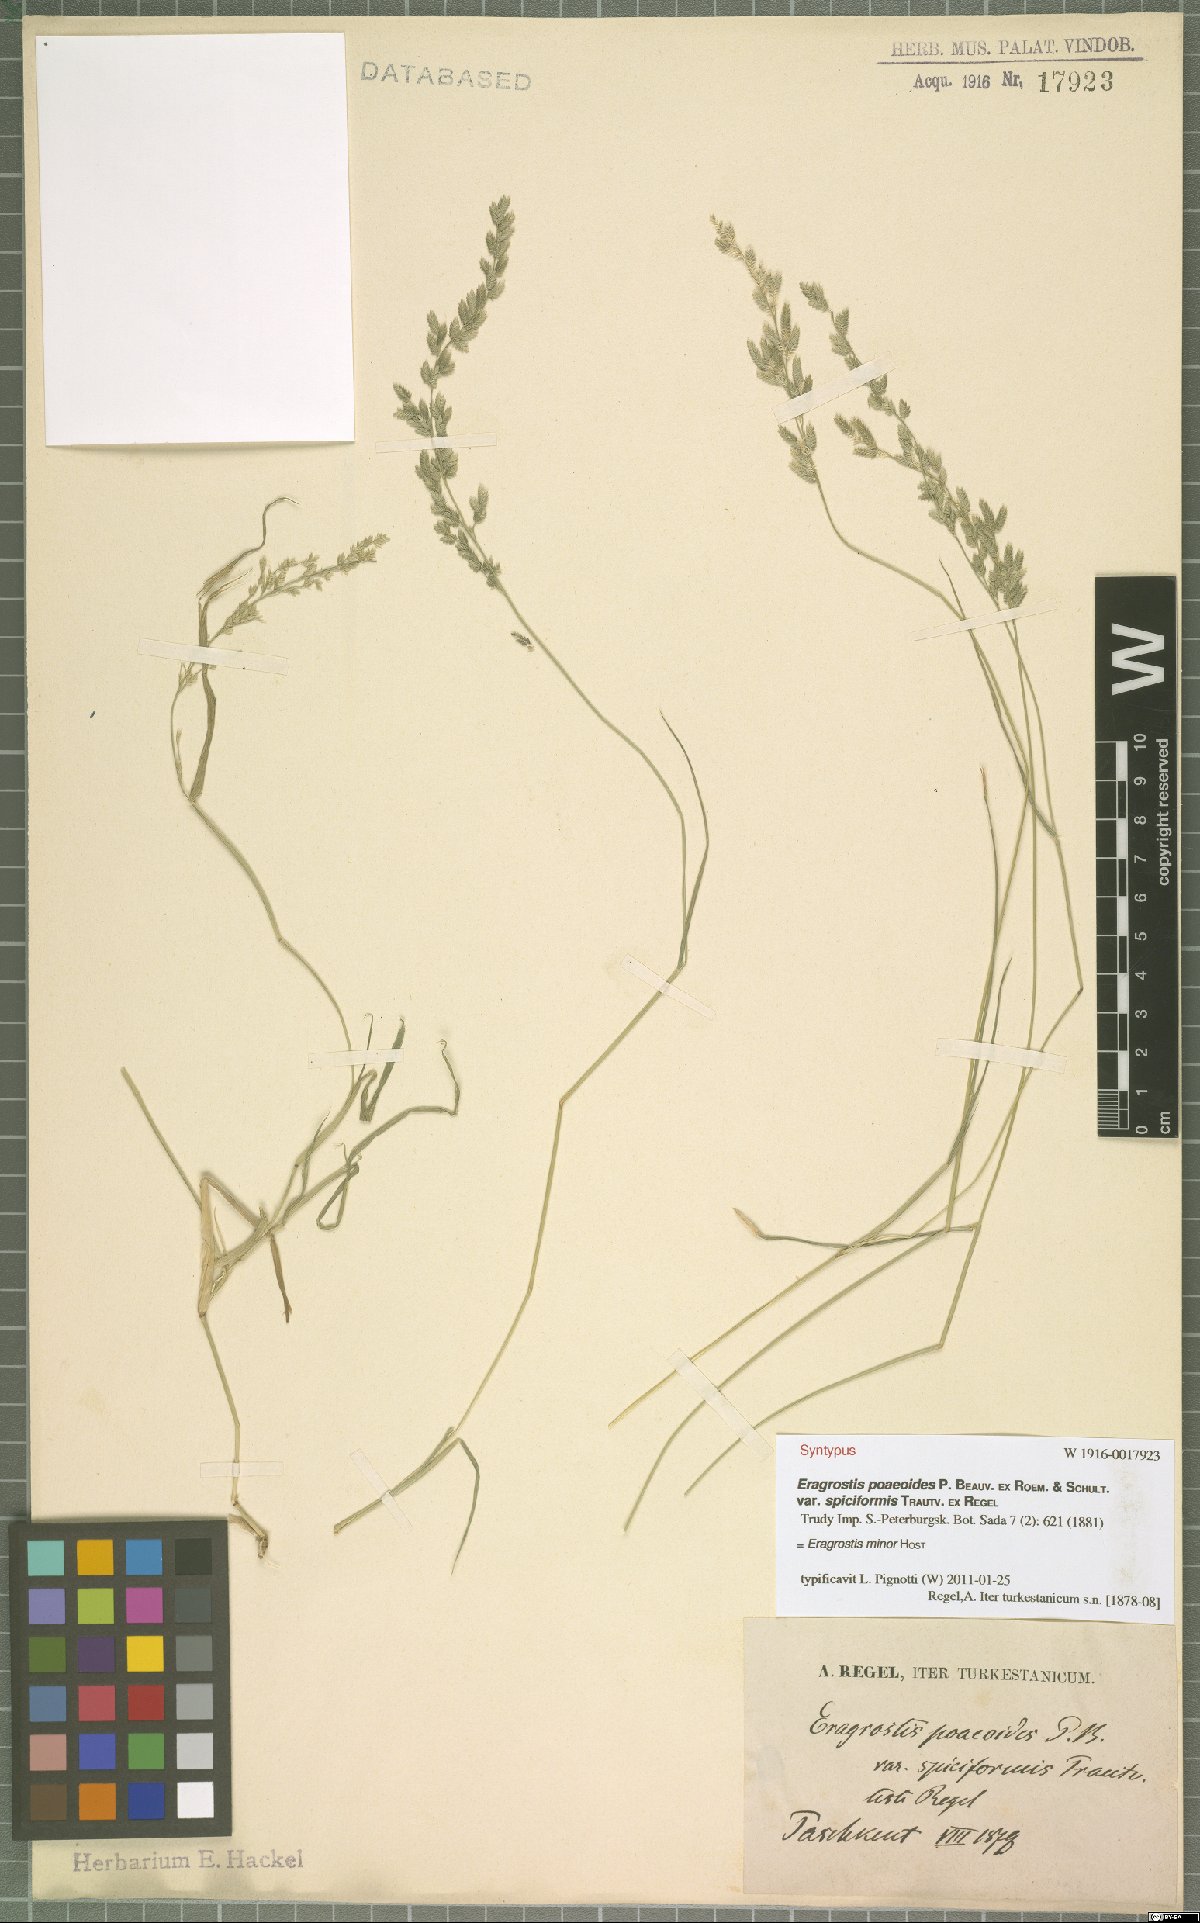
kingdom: Plantae
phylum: Tracheophyta
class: Liliopsida
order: Poales
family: Poaceae
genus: Eragrostis
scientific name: Eragrostis minor
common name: Small love-grass
